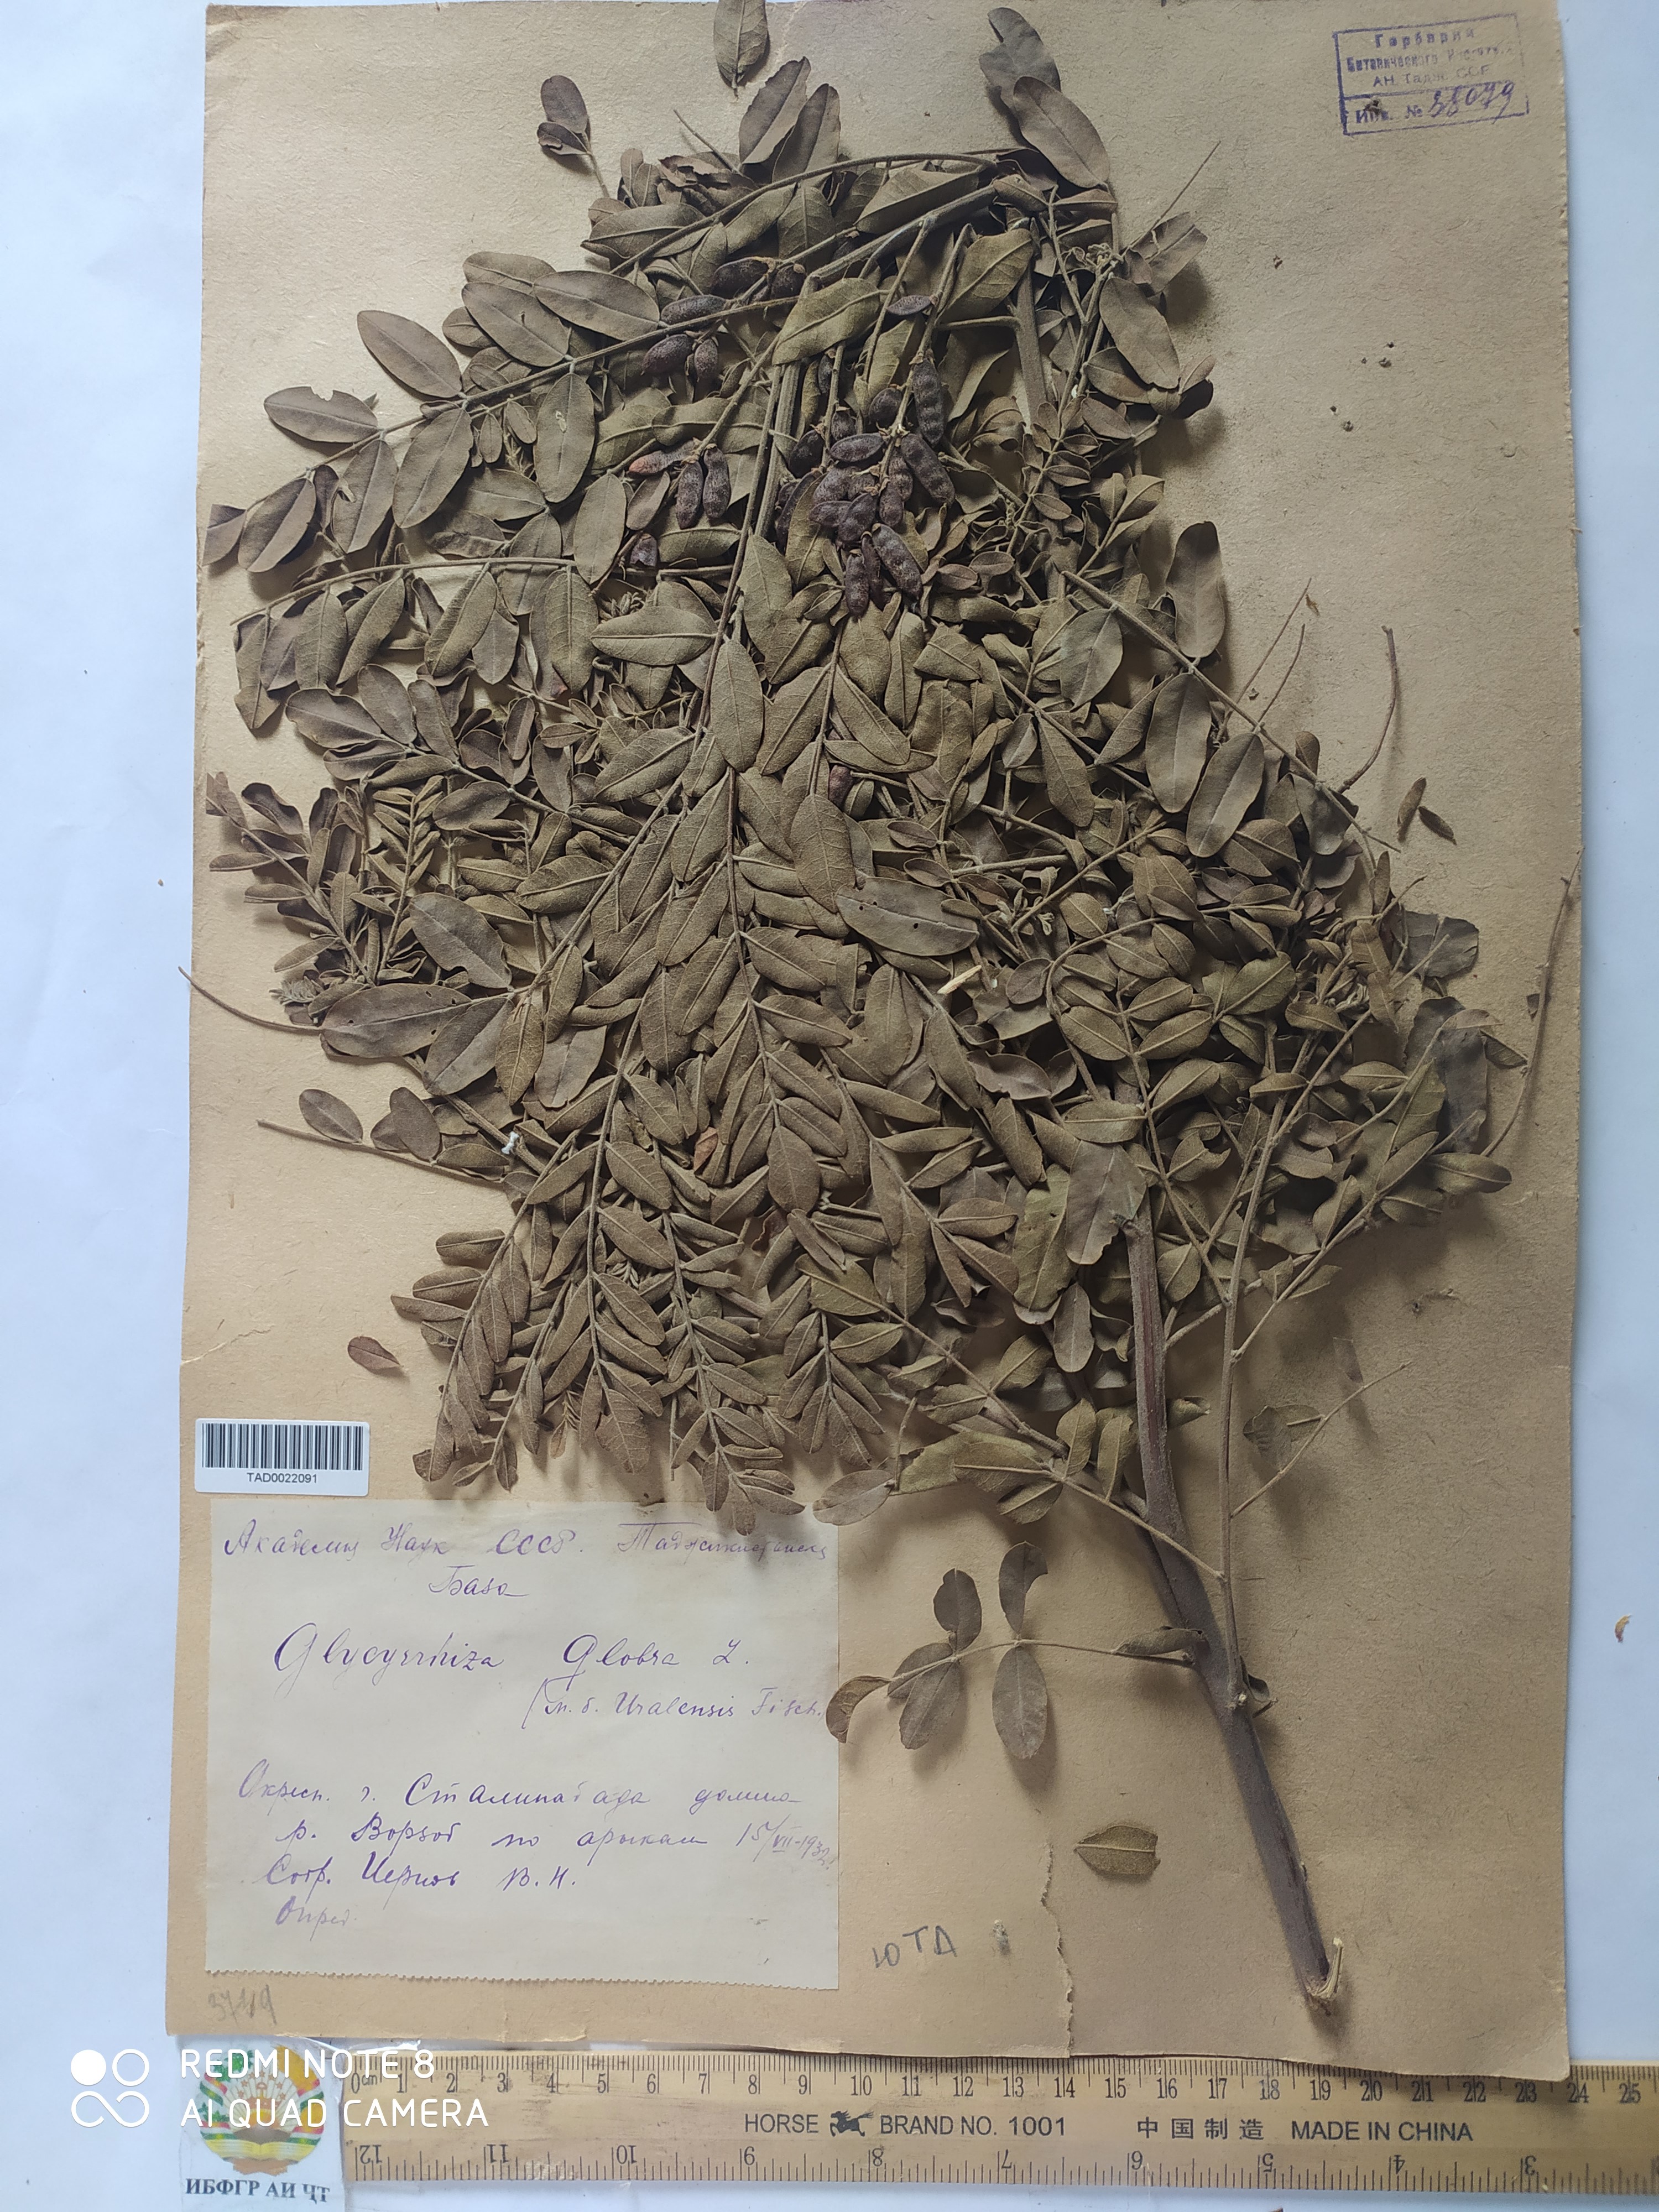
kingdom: Plantae
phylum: Tracheophyta
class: Magnoliopsida
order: Fabales
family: Fabaceae
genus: Glycyrrhiza
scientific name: Glycyrrhiza glabra
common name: Liquorice
